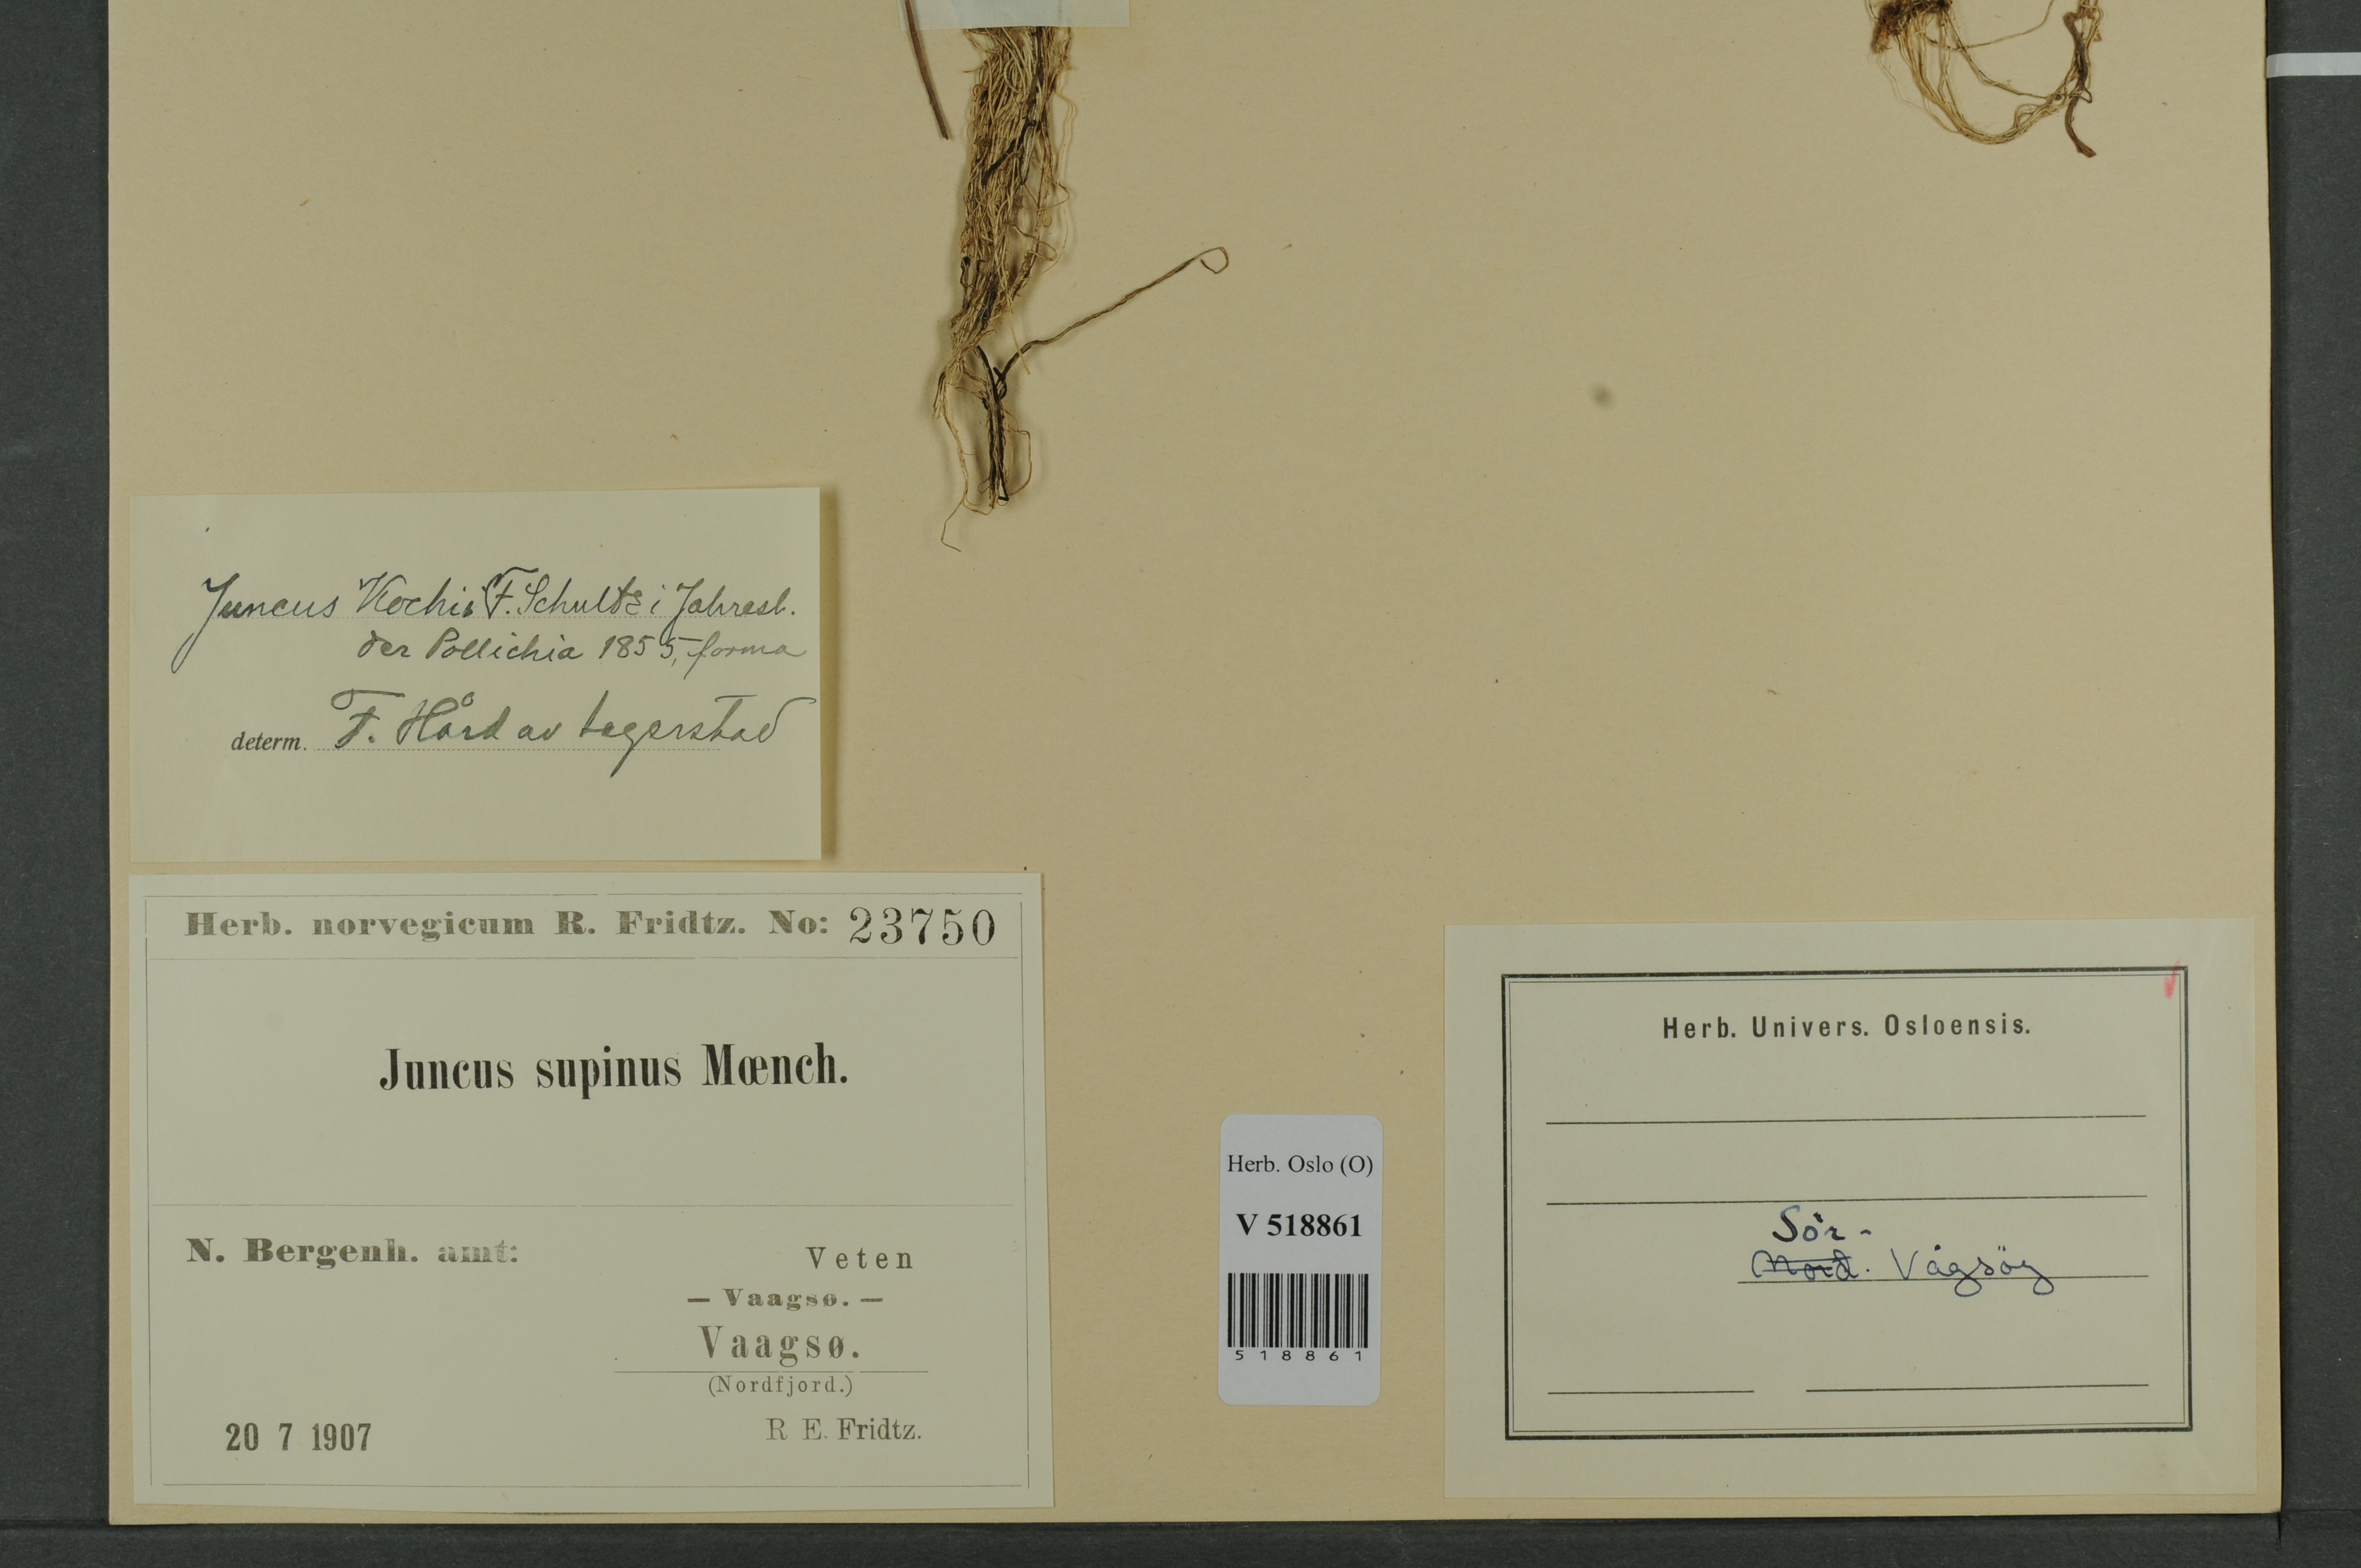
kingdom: Plantae
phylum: Tracheophyta
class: Liliopsida
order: Poales
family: Juncaceae
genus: Juncus
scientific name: Juncus bulbosus
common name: Bulbous rush
